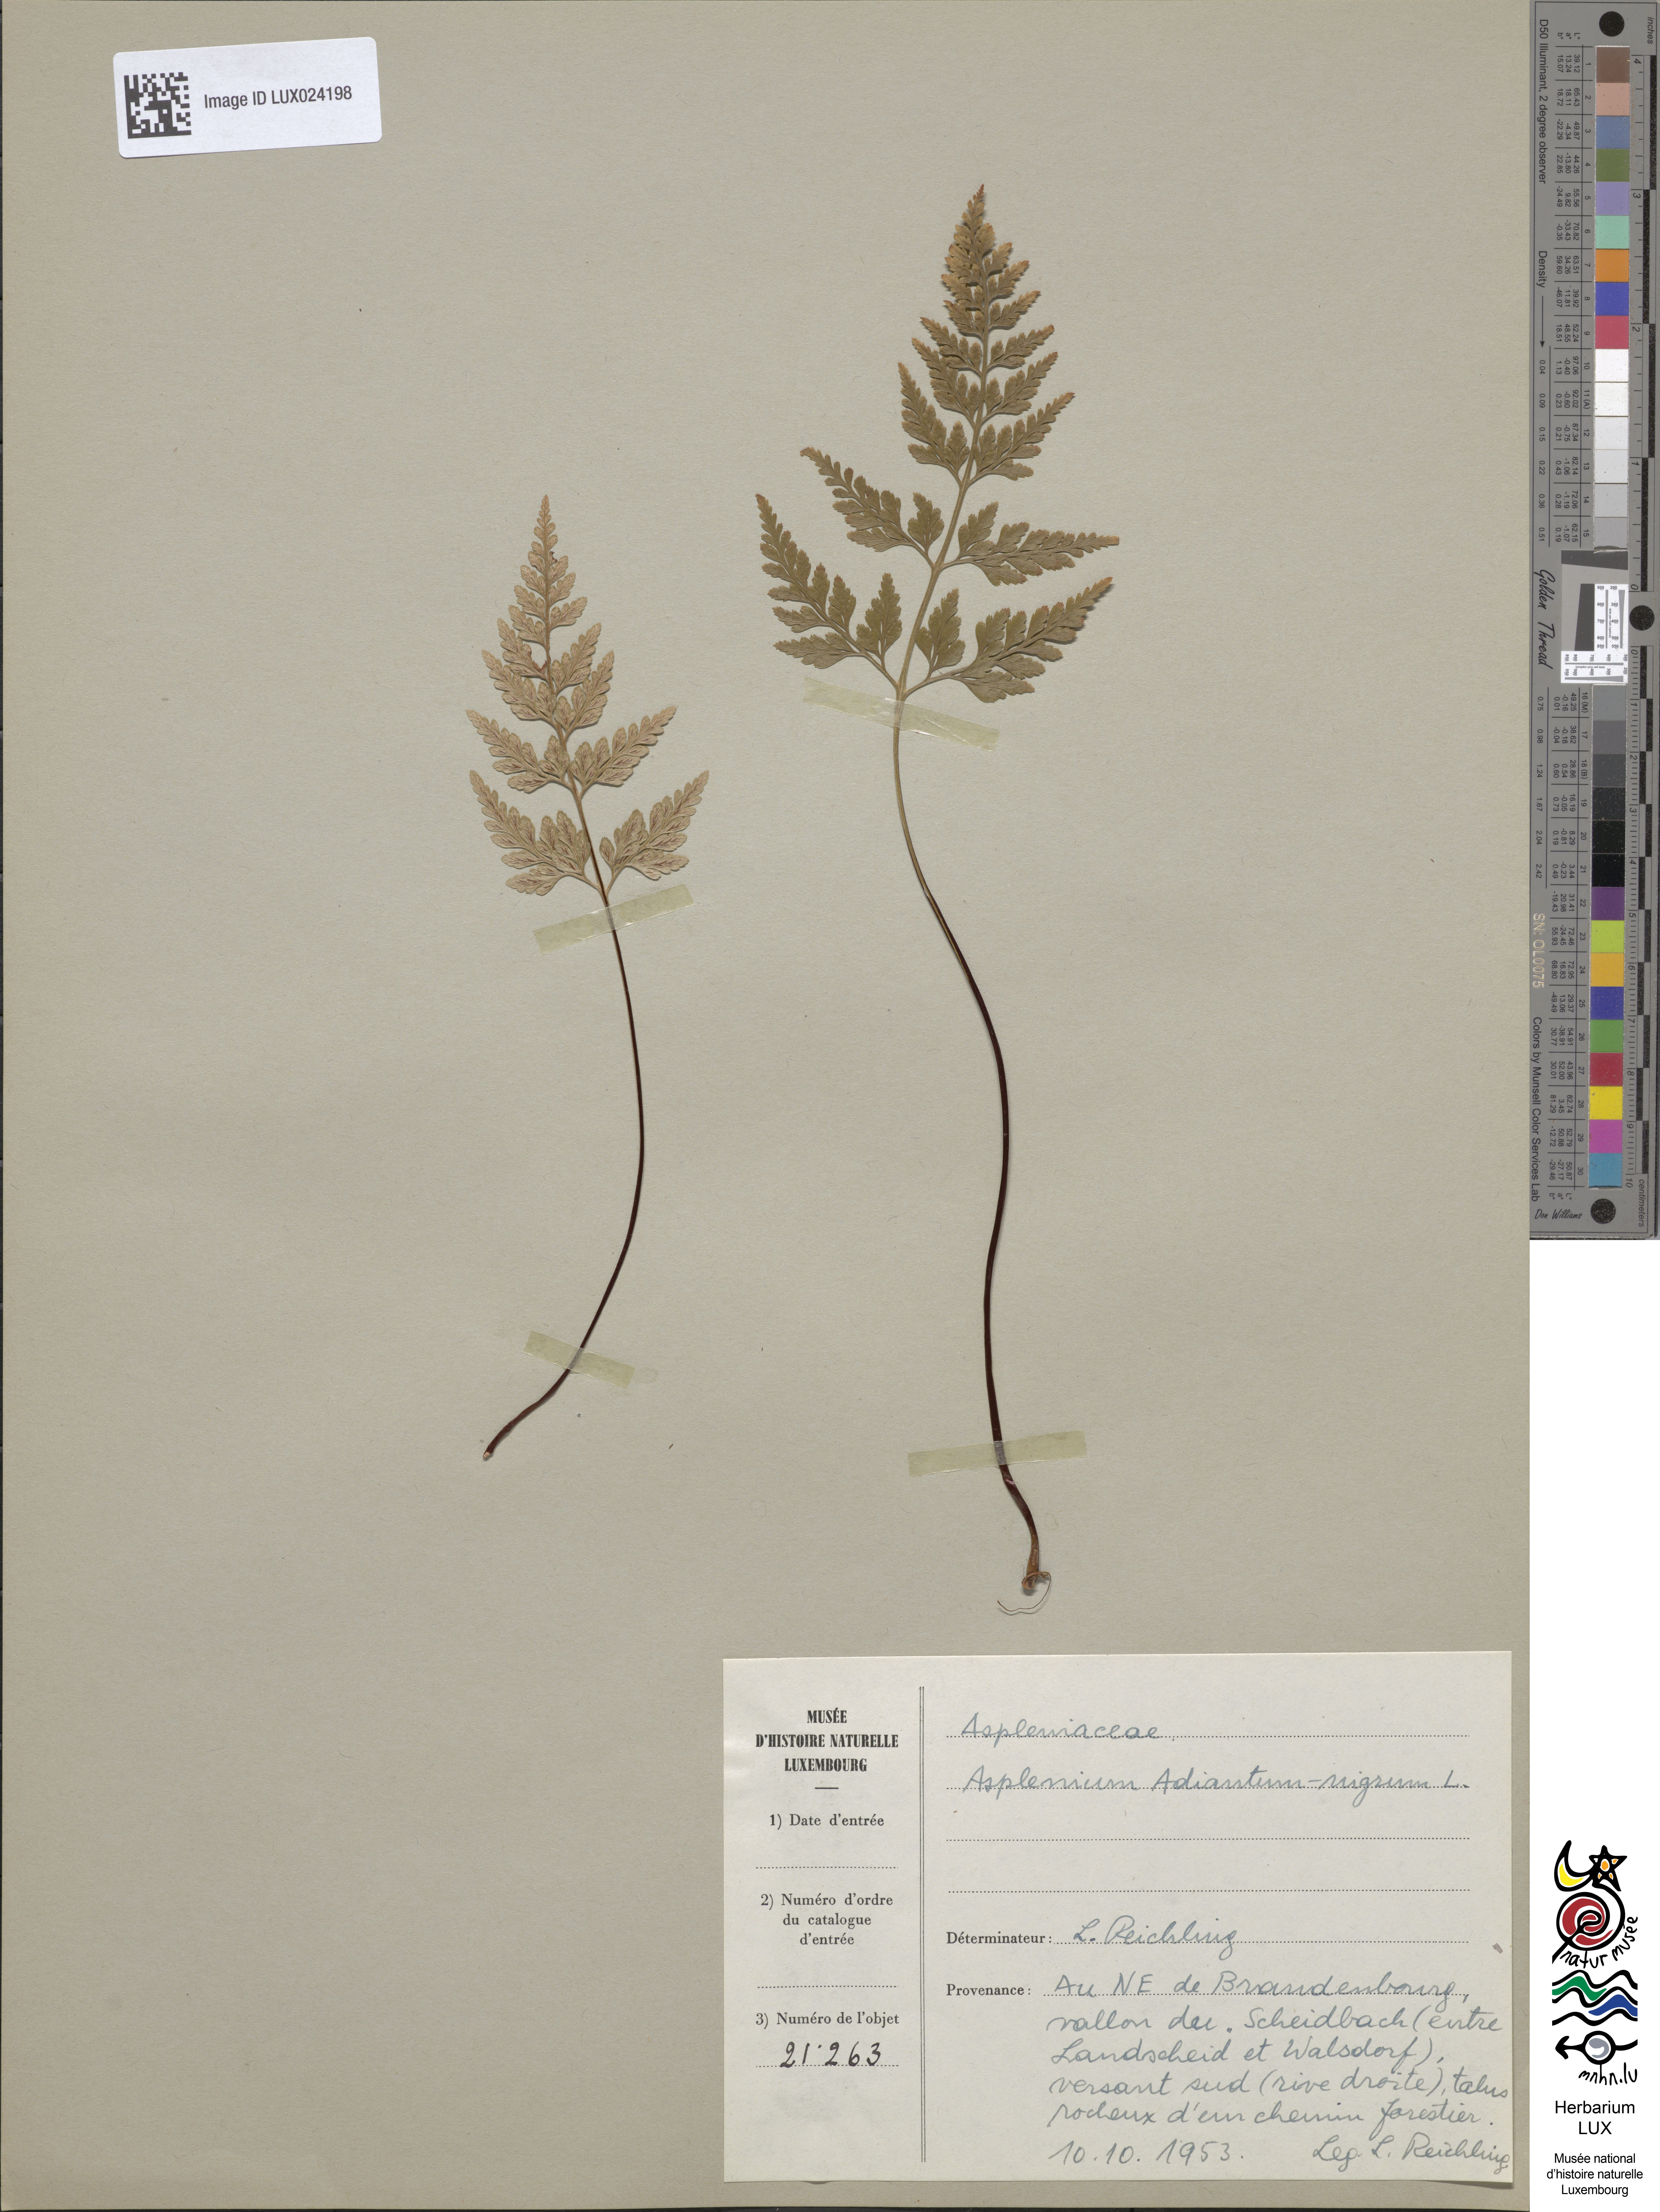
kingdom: Plantae
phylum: Tracheophyta
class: Polypodiopsida
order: Polypodiales
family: Aspleniaceae
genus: Asplenium
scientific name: Asplenium adiantum-nigrum
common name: Black spleenwort
